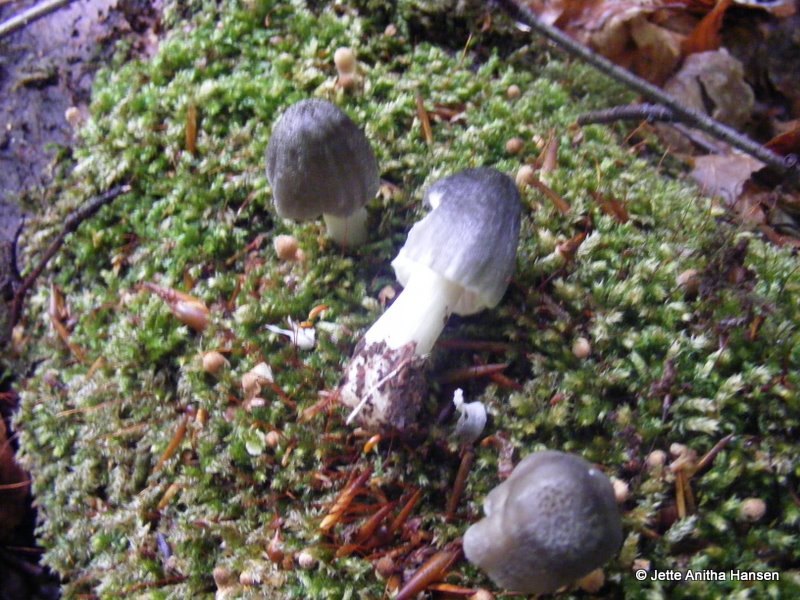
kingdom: Fungi
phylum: Basidiomycota
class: Agaricomycetes
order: Agaricales
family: Pluteaceae
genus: Pluteus
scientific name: Pluteus salicinus
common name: stiv skærmhat
